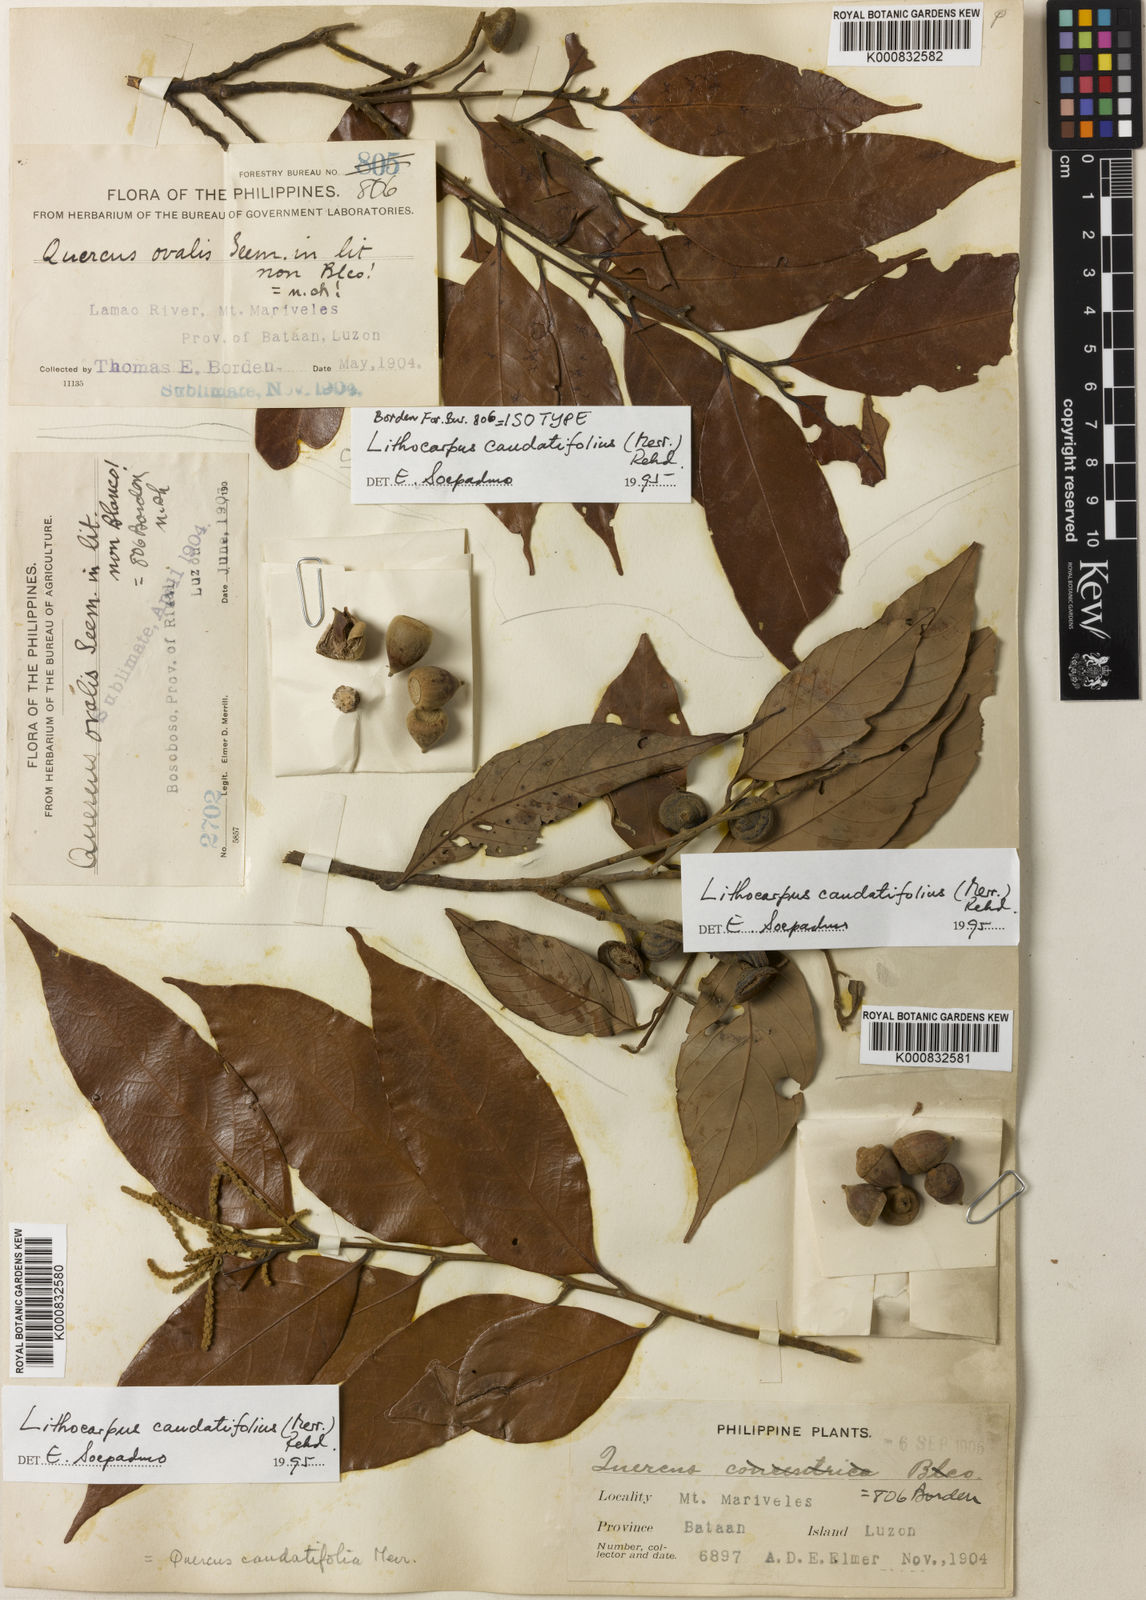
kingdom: Plantae
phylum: Tracheophyta
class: Magnoliopsida
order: Fagales
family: Fagaceae
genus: Lithocarpus
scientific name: Lithocarpus caudatifolius
